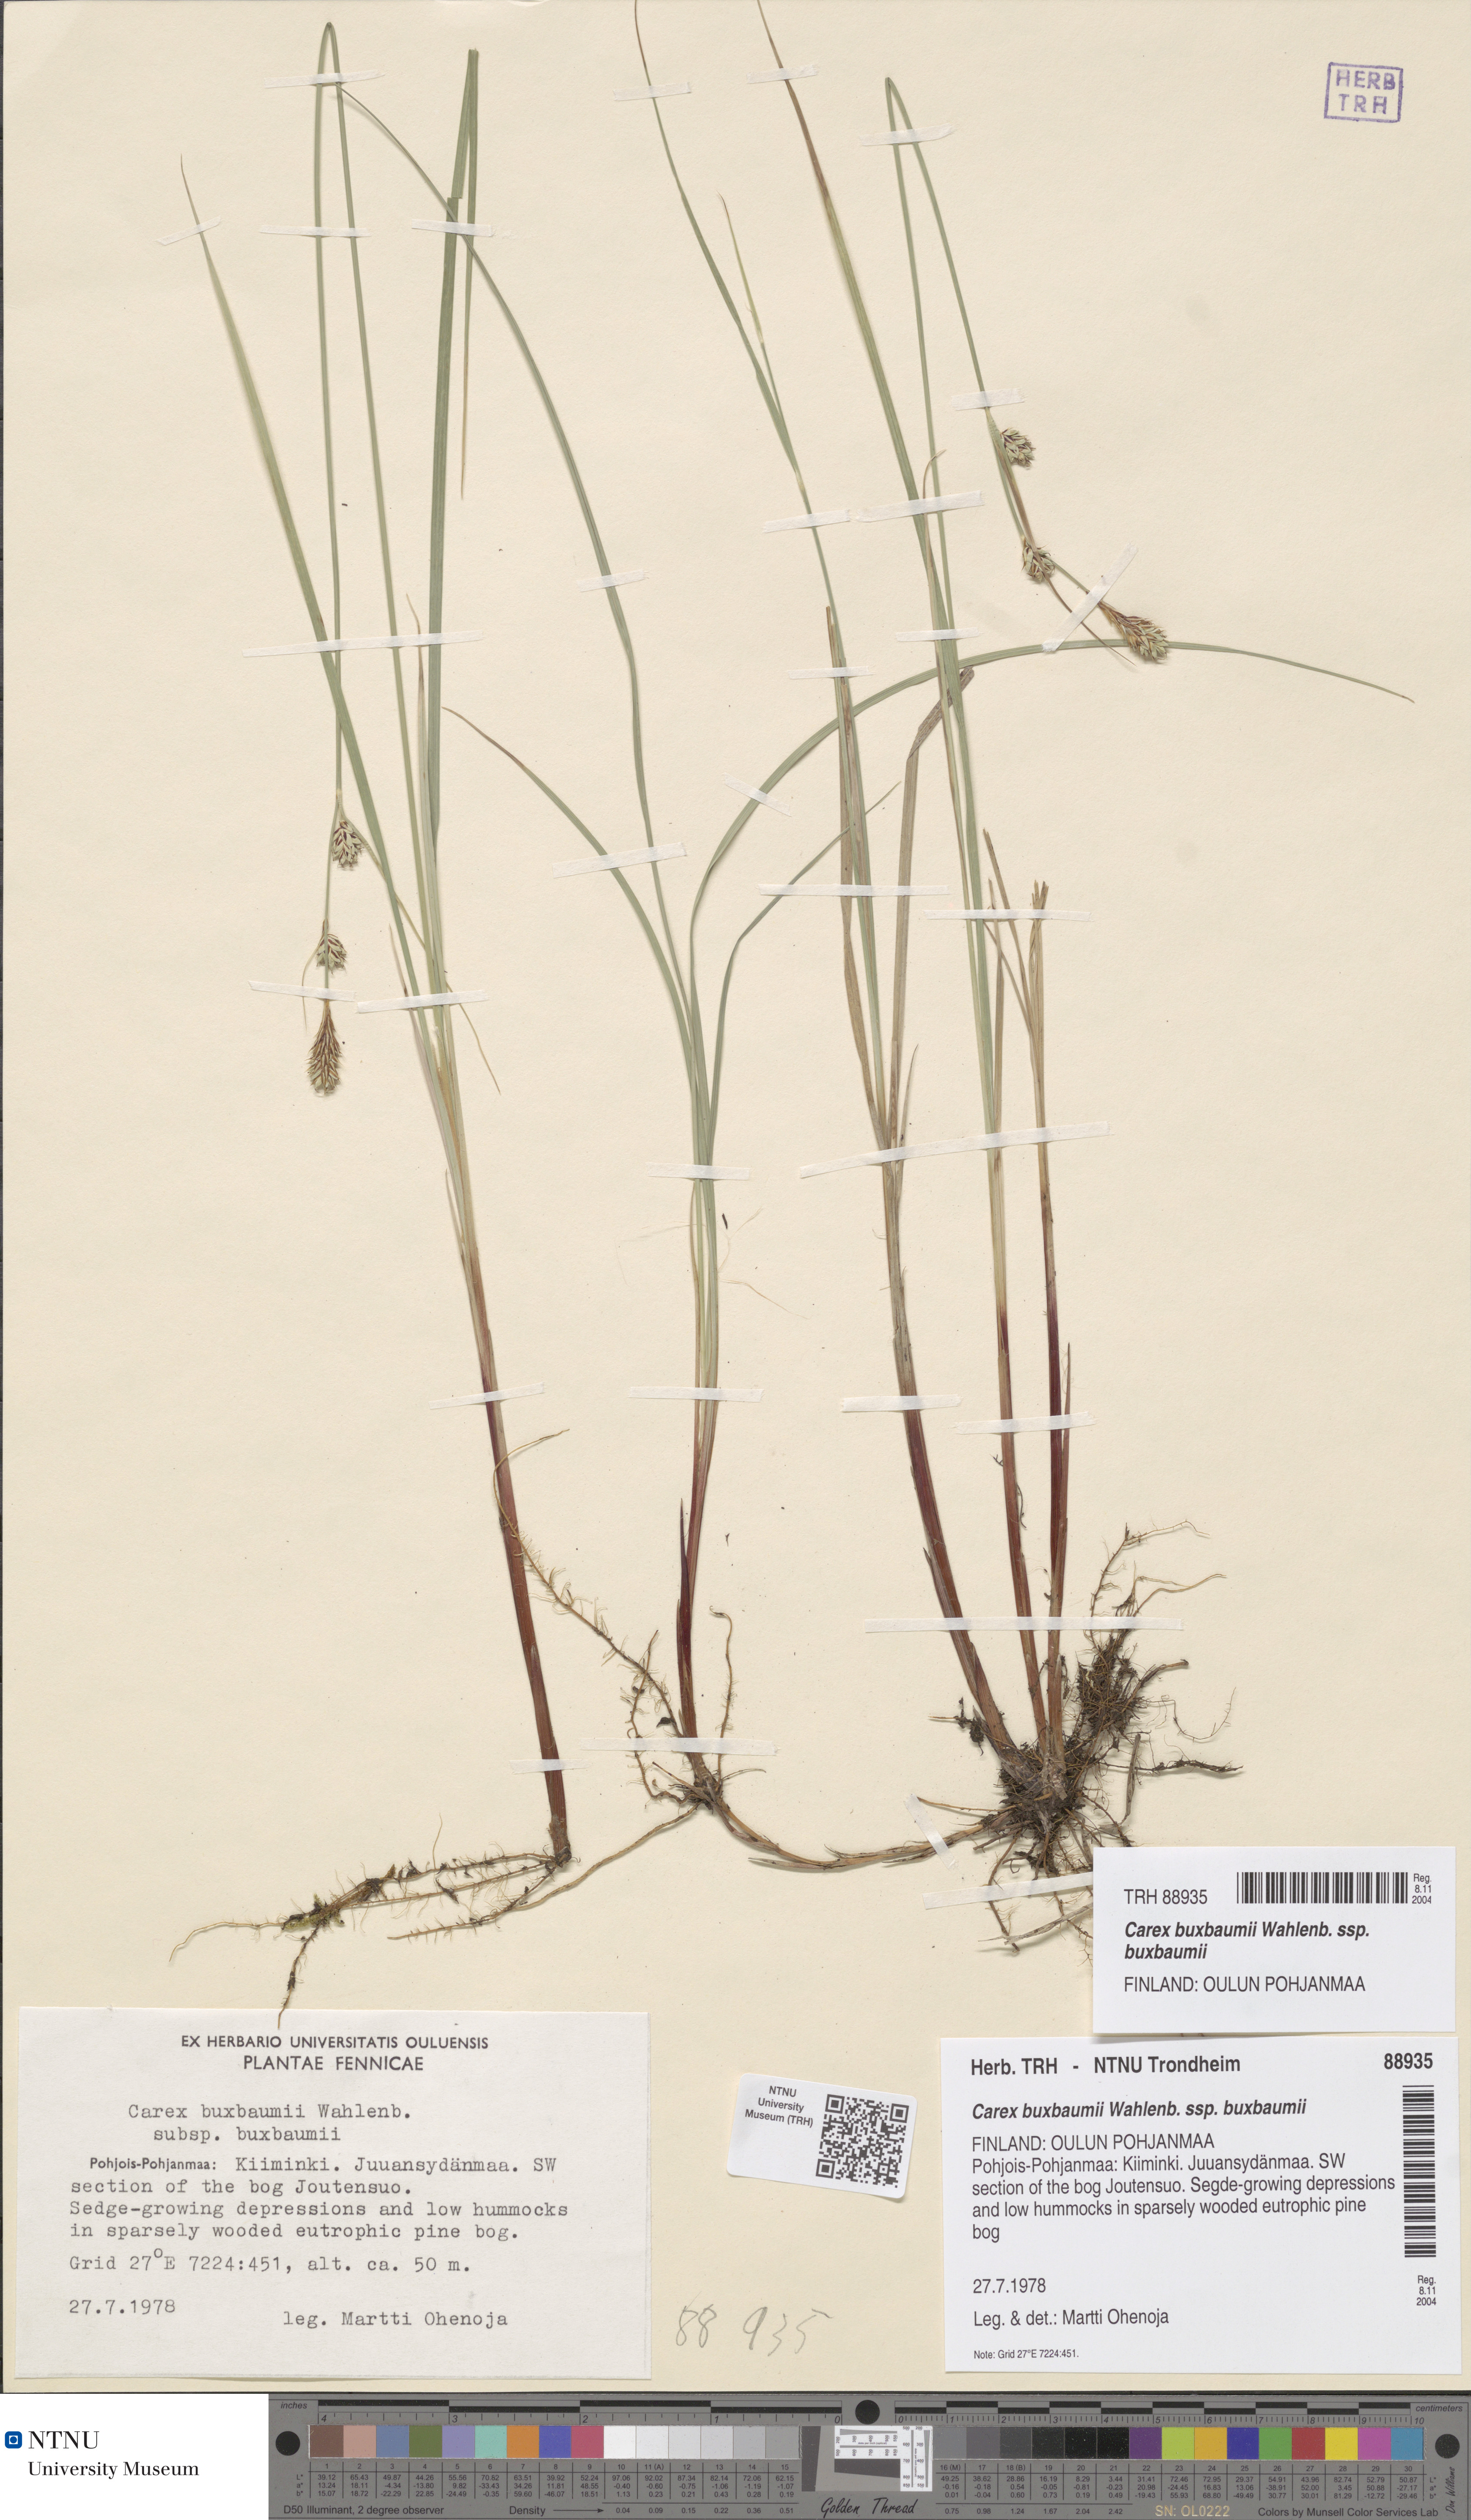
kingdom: Plantae
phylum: Tracheophyta
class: Liliopsida
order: Poales
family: Cyperaceae
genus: Carex
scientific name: Carex buxbaumii
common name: Club sedge
